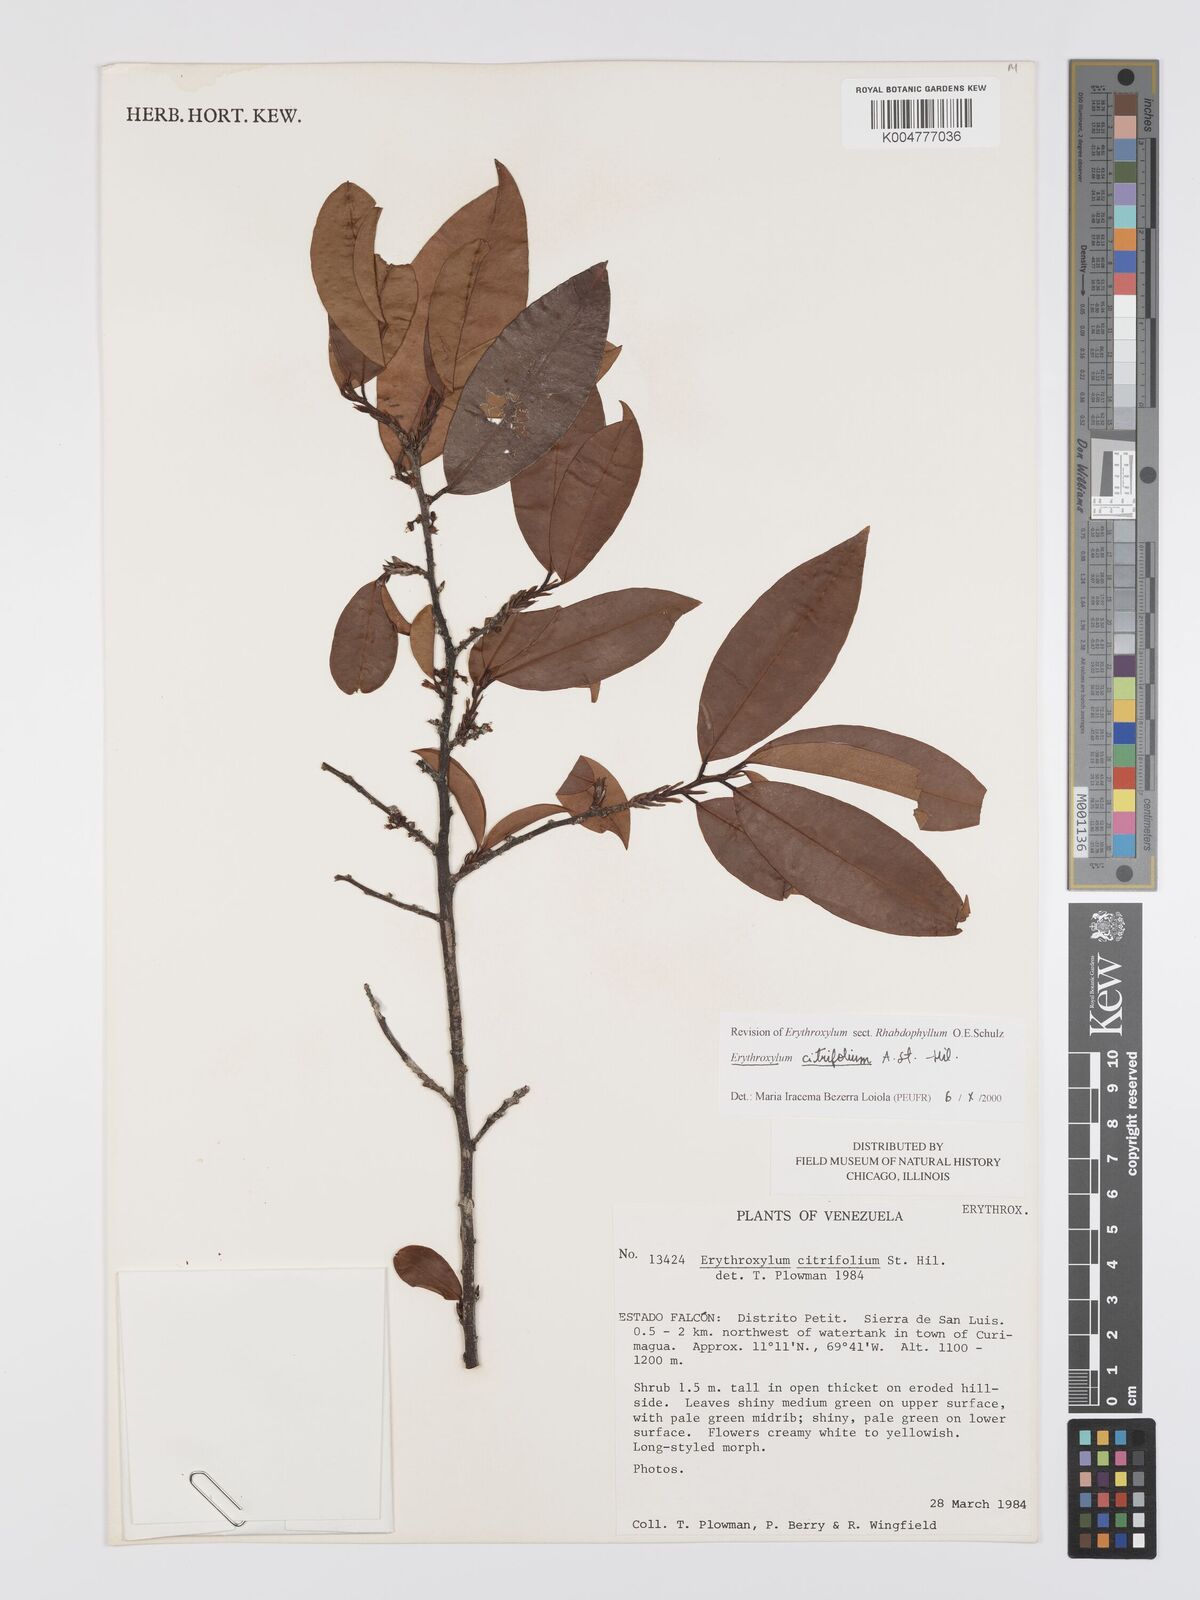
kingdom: Plantae
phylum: Tracheophyta
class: Magnoliopsida
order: Malpighiales
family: Erythroxylaceae
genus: Erythroxylum
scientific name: Erythroxylum citrifolium
